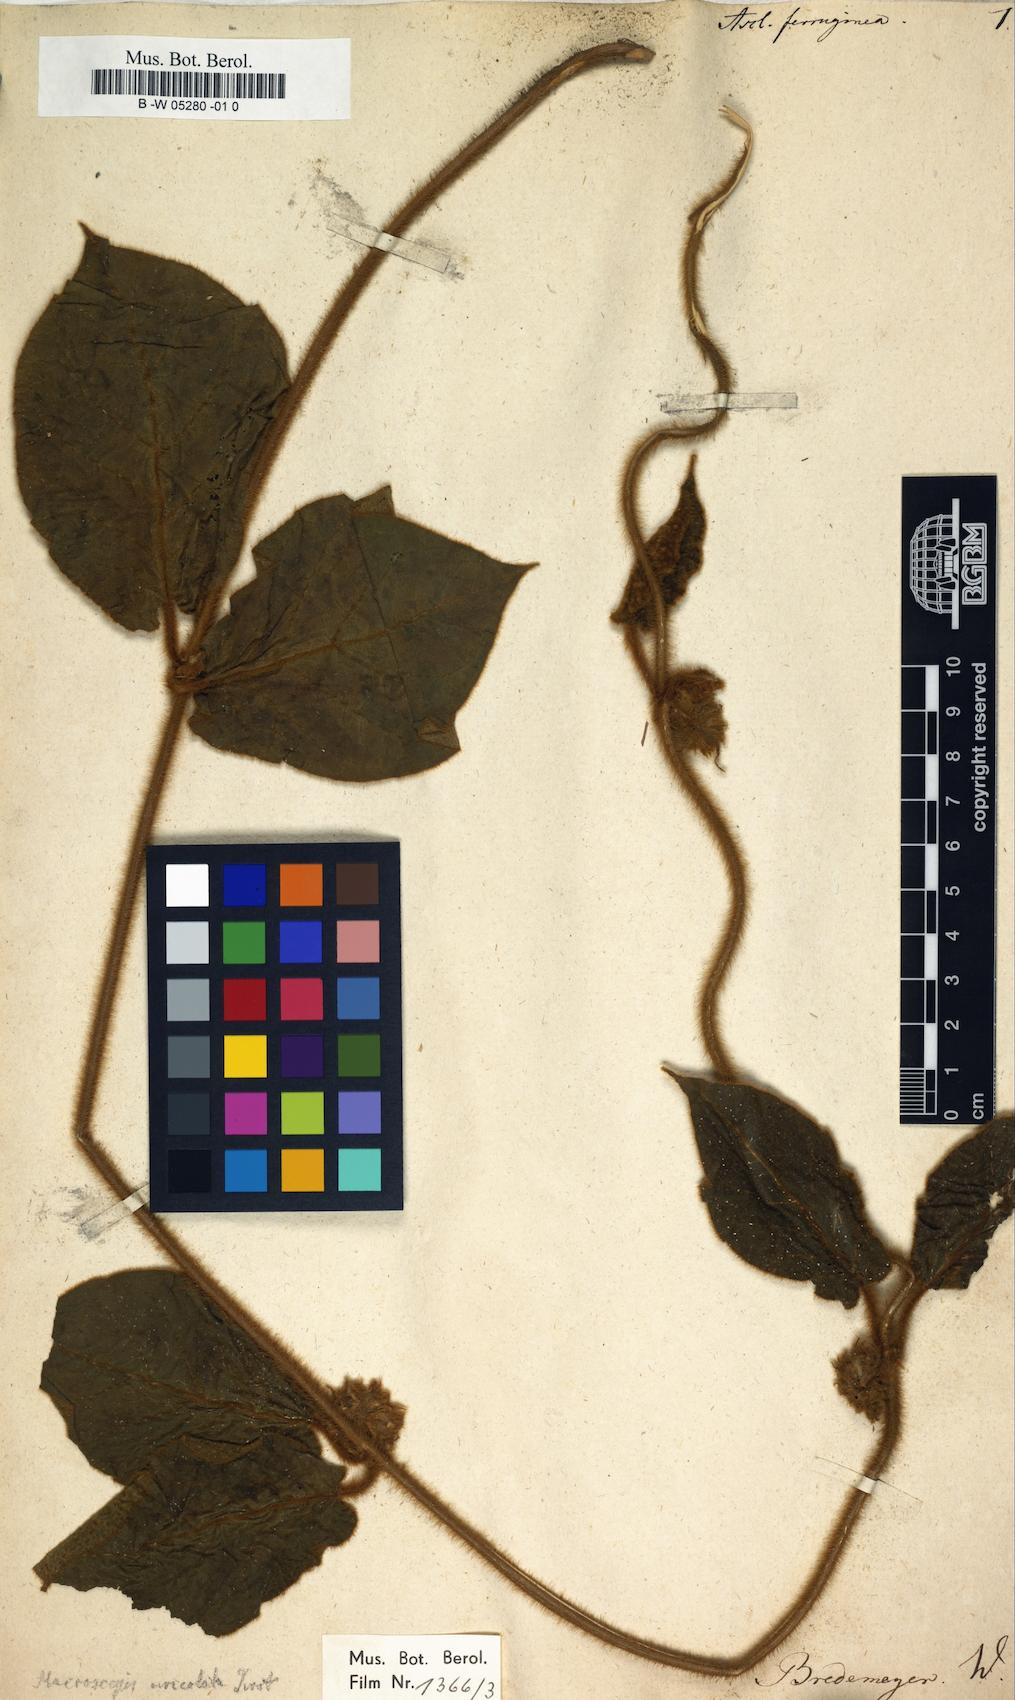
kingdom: Plantae
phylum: Tracheophyta
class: Magnoliopsida
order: Gentianales
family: Apocynaceae
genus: Asclepias
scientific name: Asclepias ferruginea
